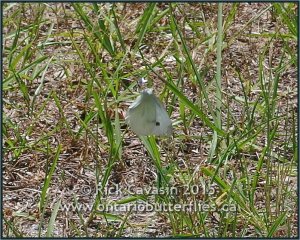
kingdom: Animalia
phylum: Arthropoda
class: Insecta
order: Lepidoptera
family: Pieridae
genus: Pieris
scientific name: Pieris rapae
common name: Cabbage White
